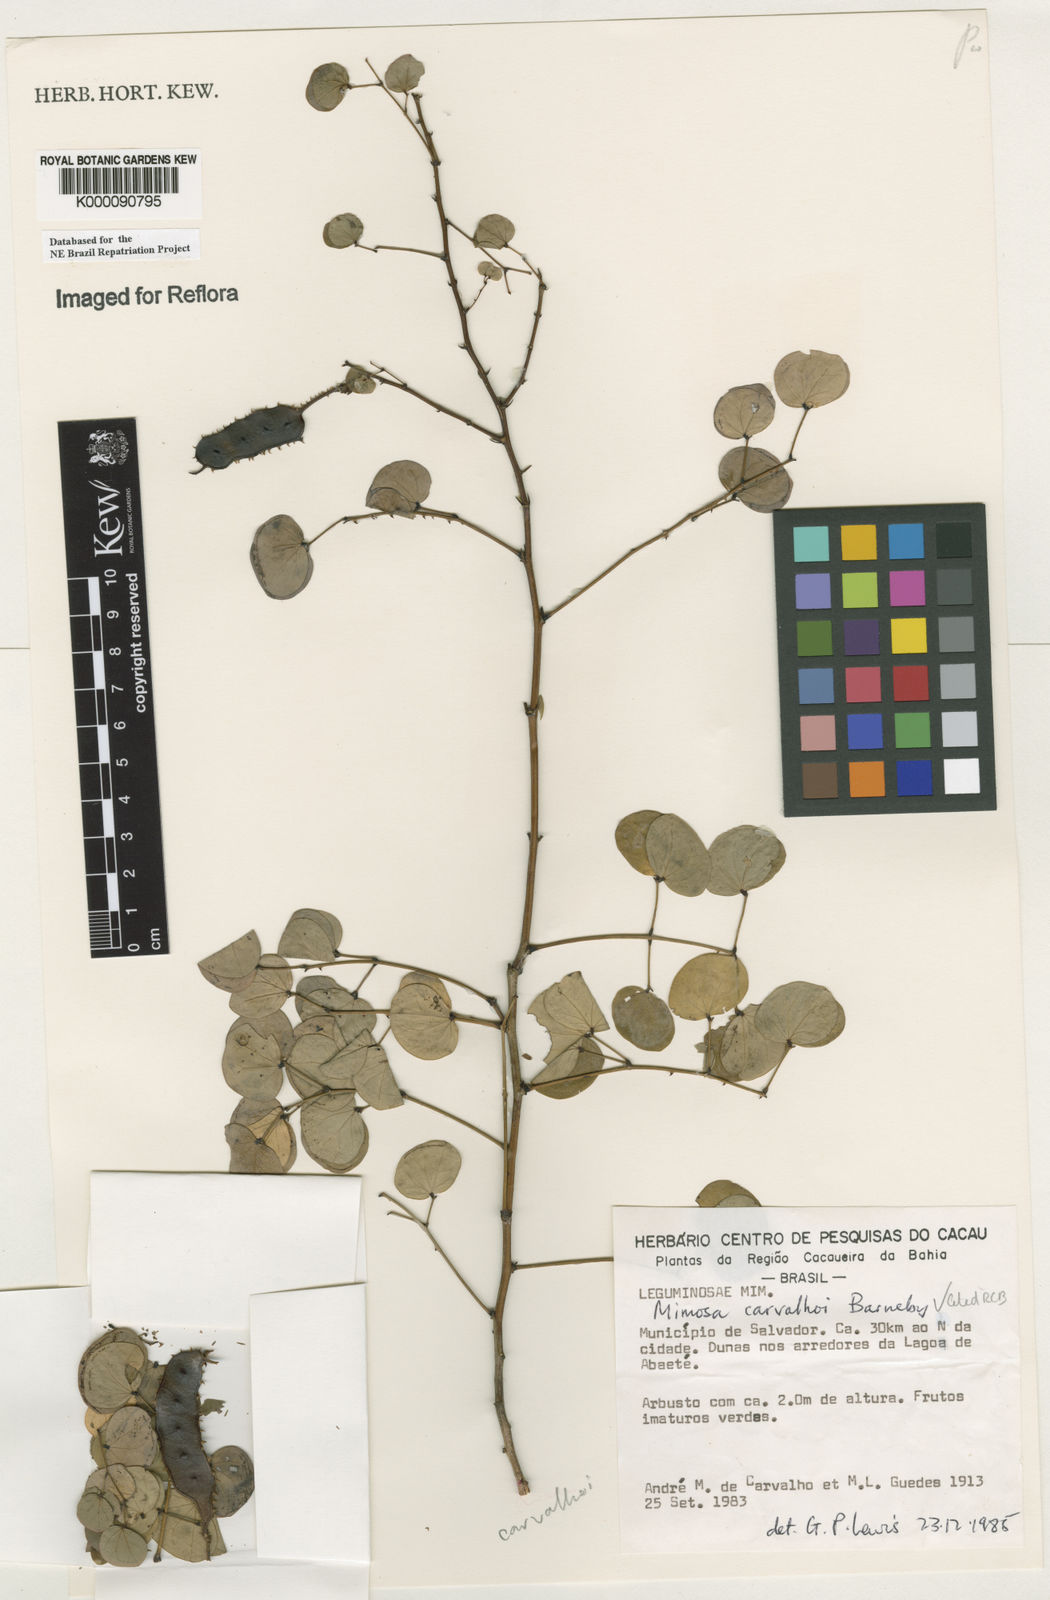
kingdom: Plantae
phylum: Tracheophyta
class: Magnoliopsida
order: Fabales
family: Fabaceae
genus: Mimosa
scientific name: Mimosa carvalhoi
